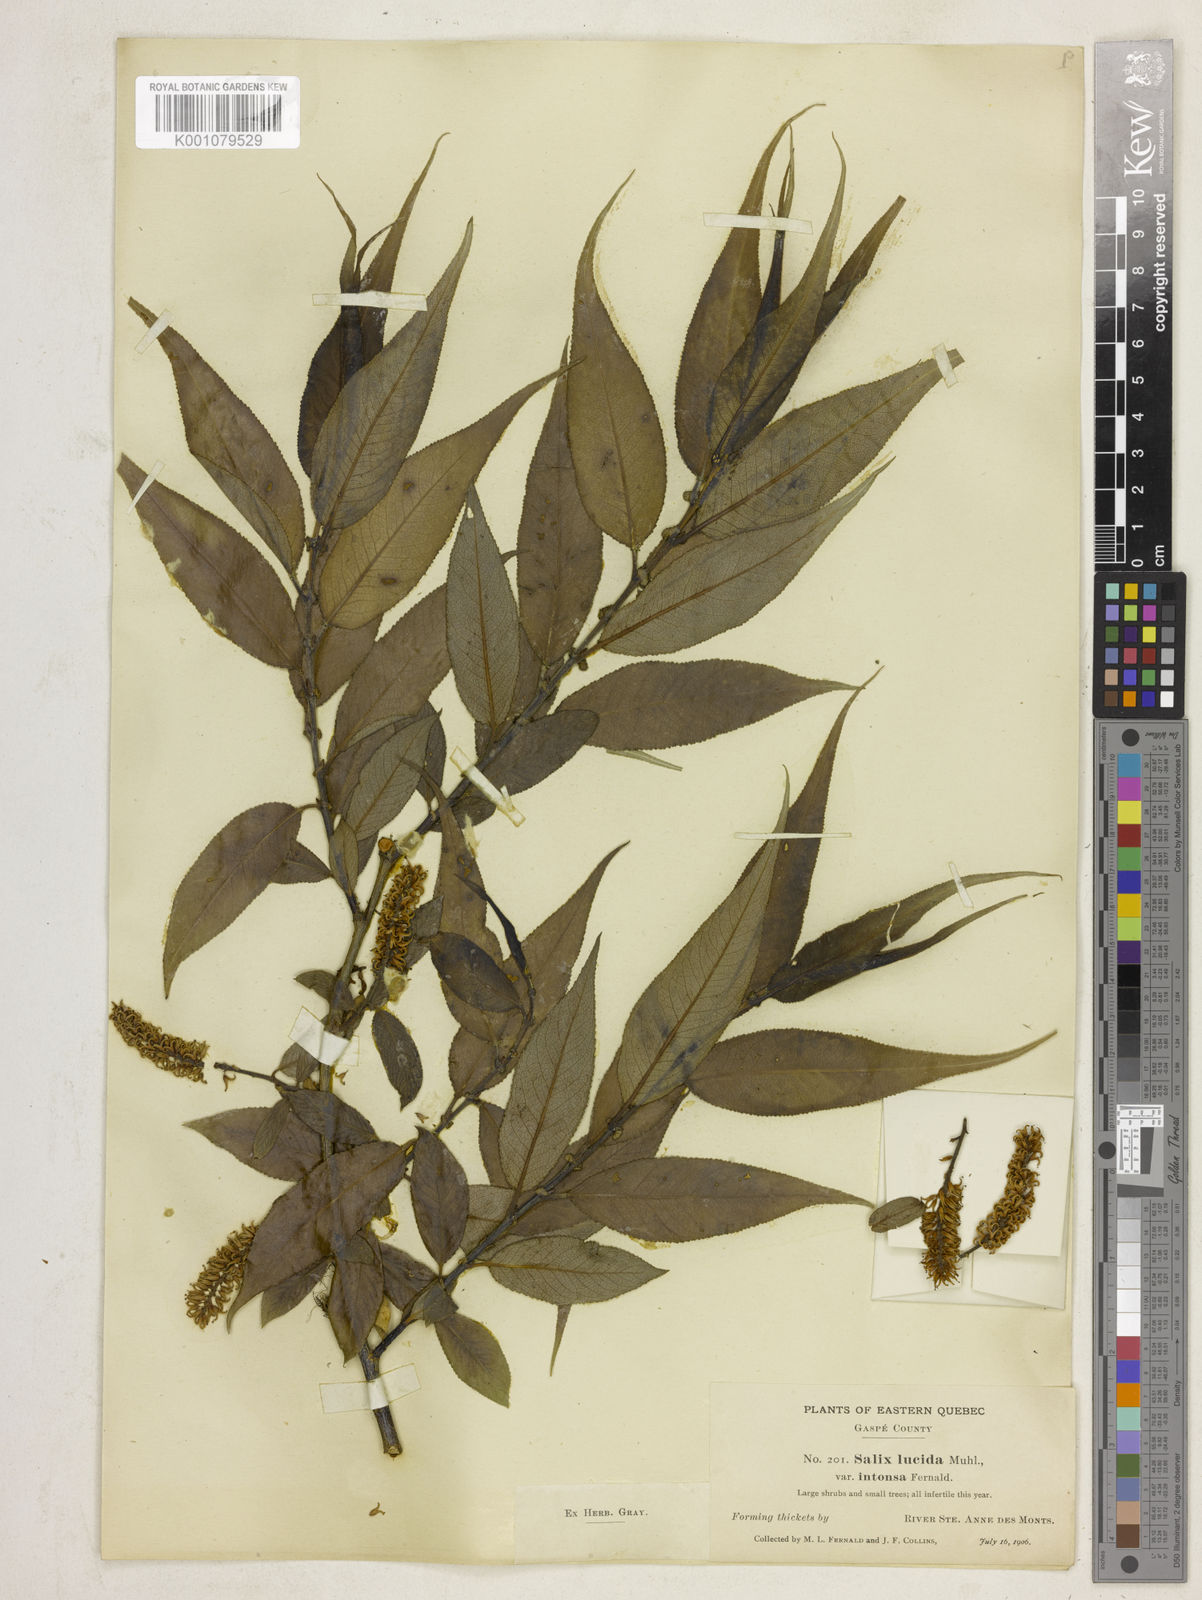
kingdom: Plantae
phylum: Tracheophyta
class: Magnoliopsida
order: Malpighiales
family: Salicaceae
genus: Salix
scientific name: Salix lucida
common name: Shining willow
